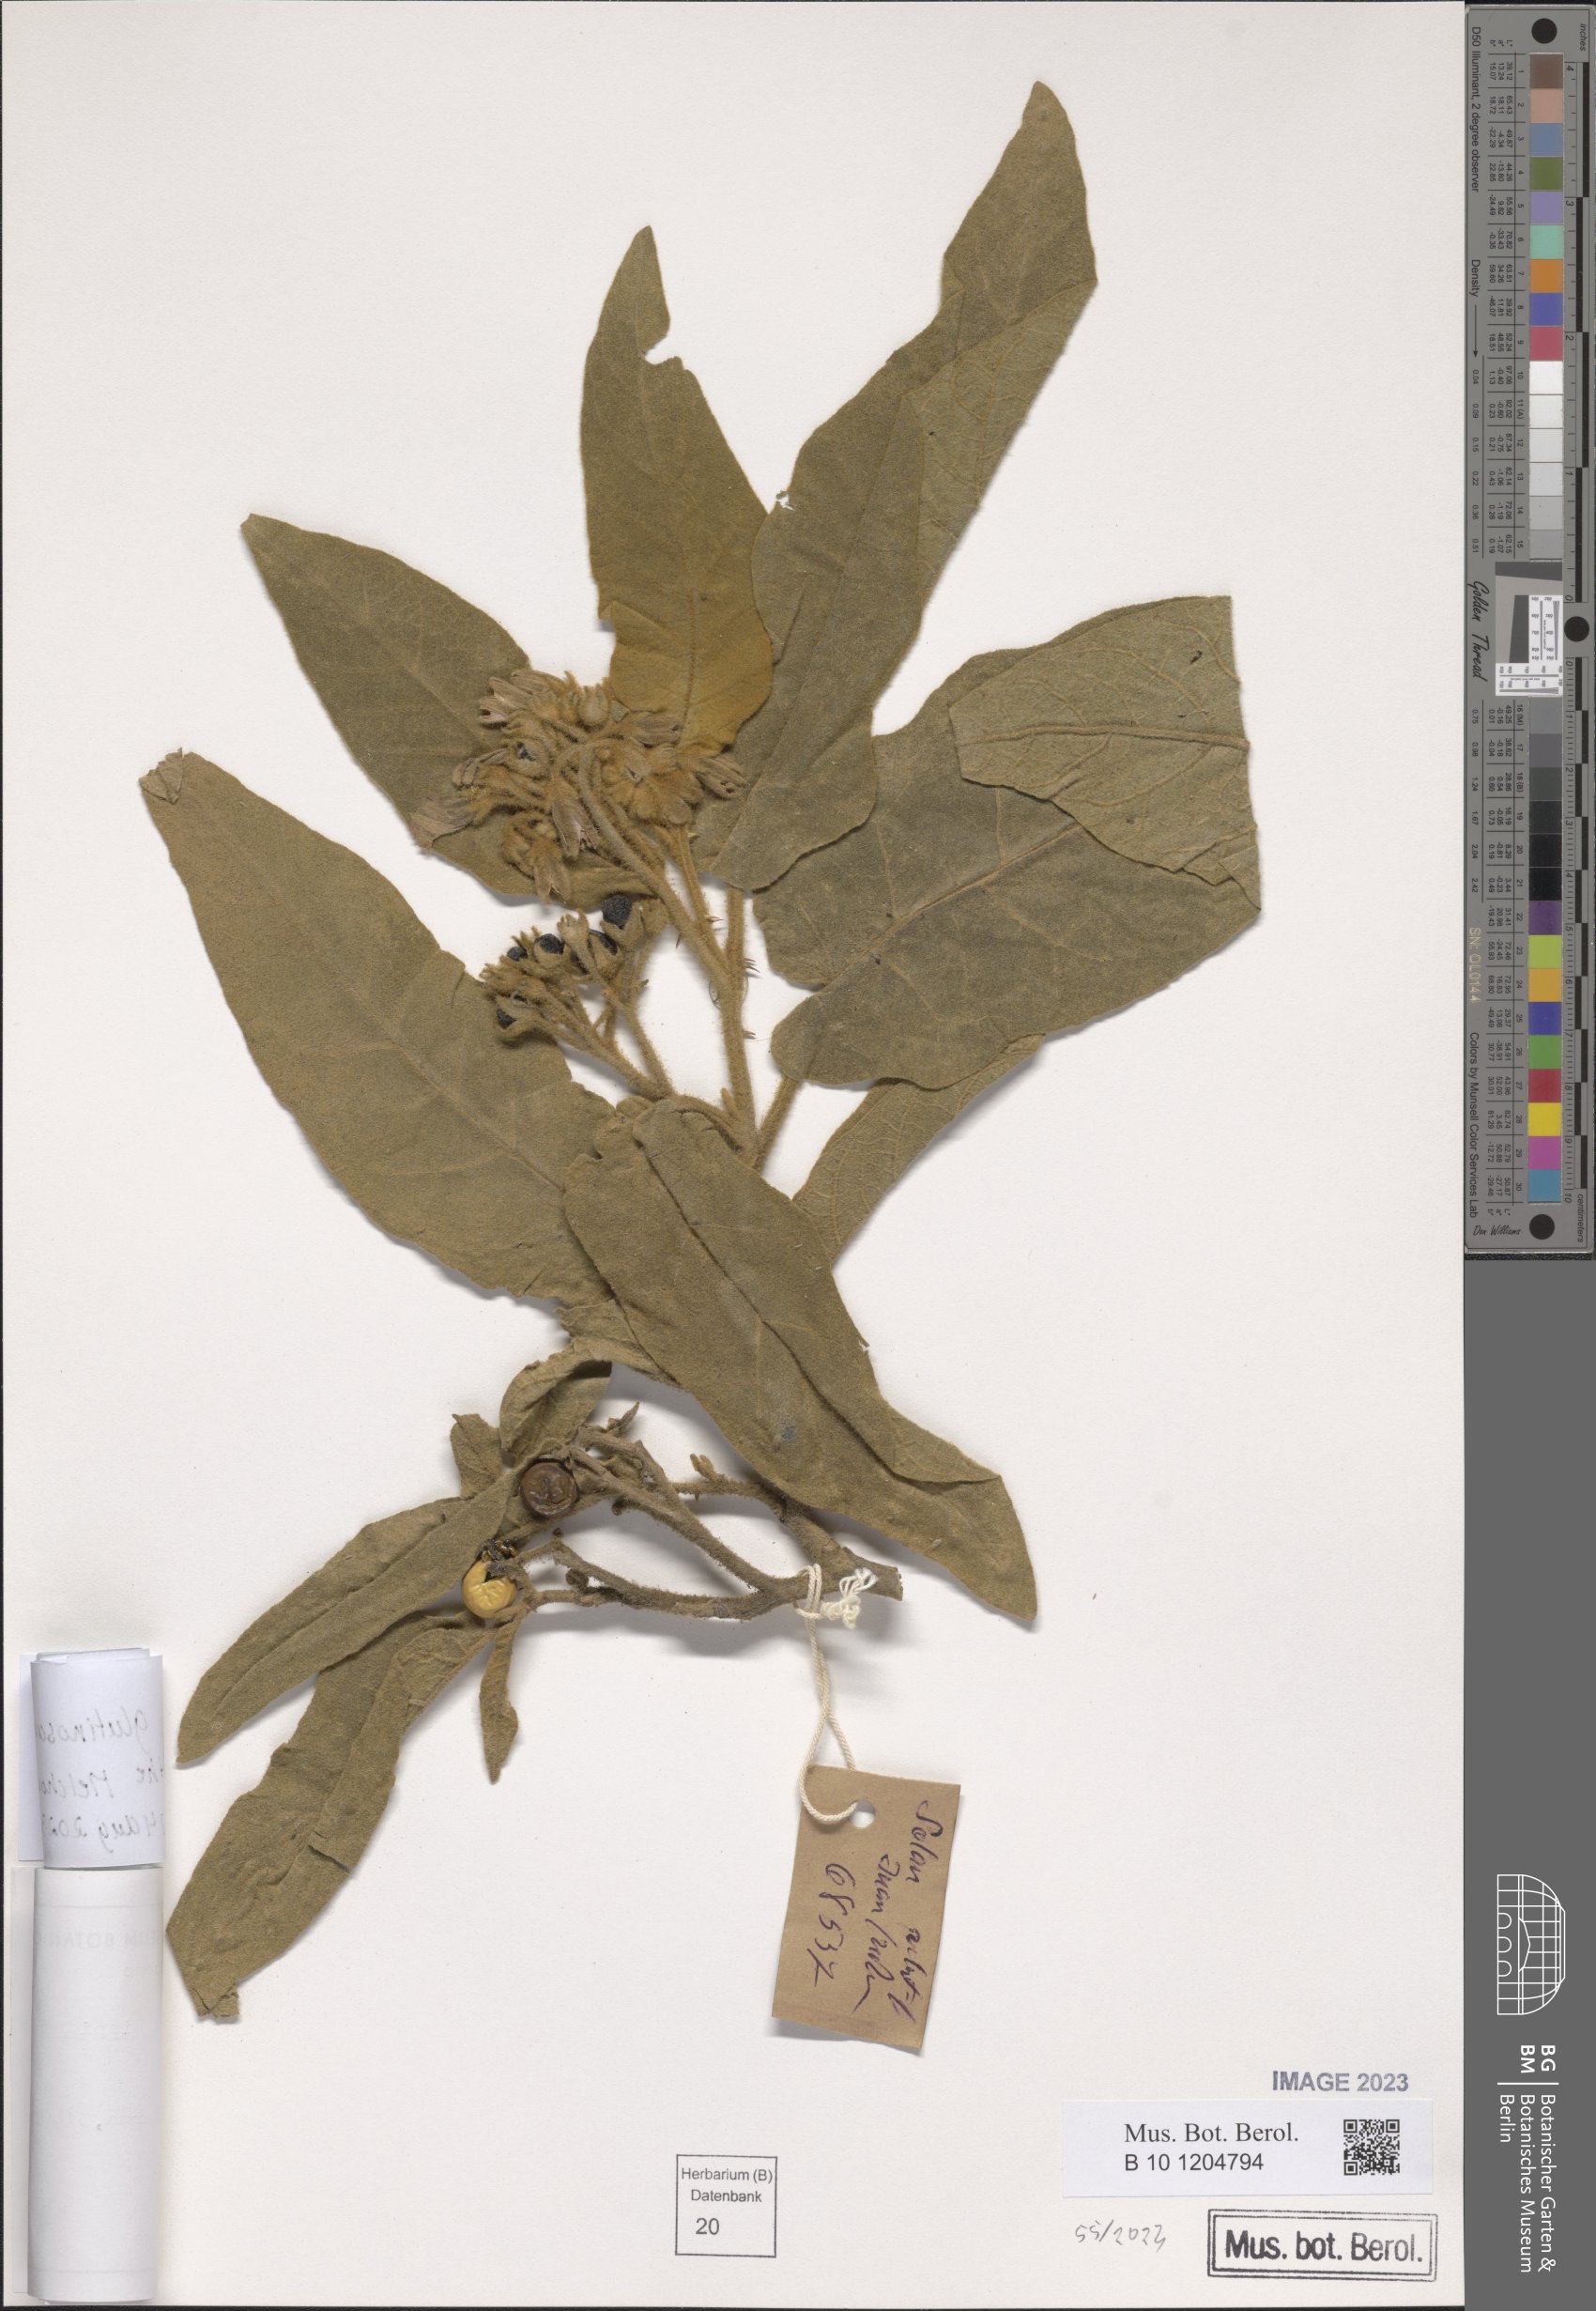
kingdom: Plantae
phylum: Tracheophyta
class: Magnoliopsida
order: Solanales
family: Solanaceae
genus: Solanum
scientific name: Solanum glutinosum
